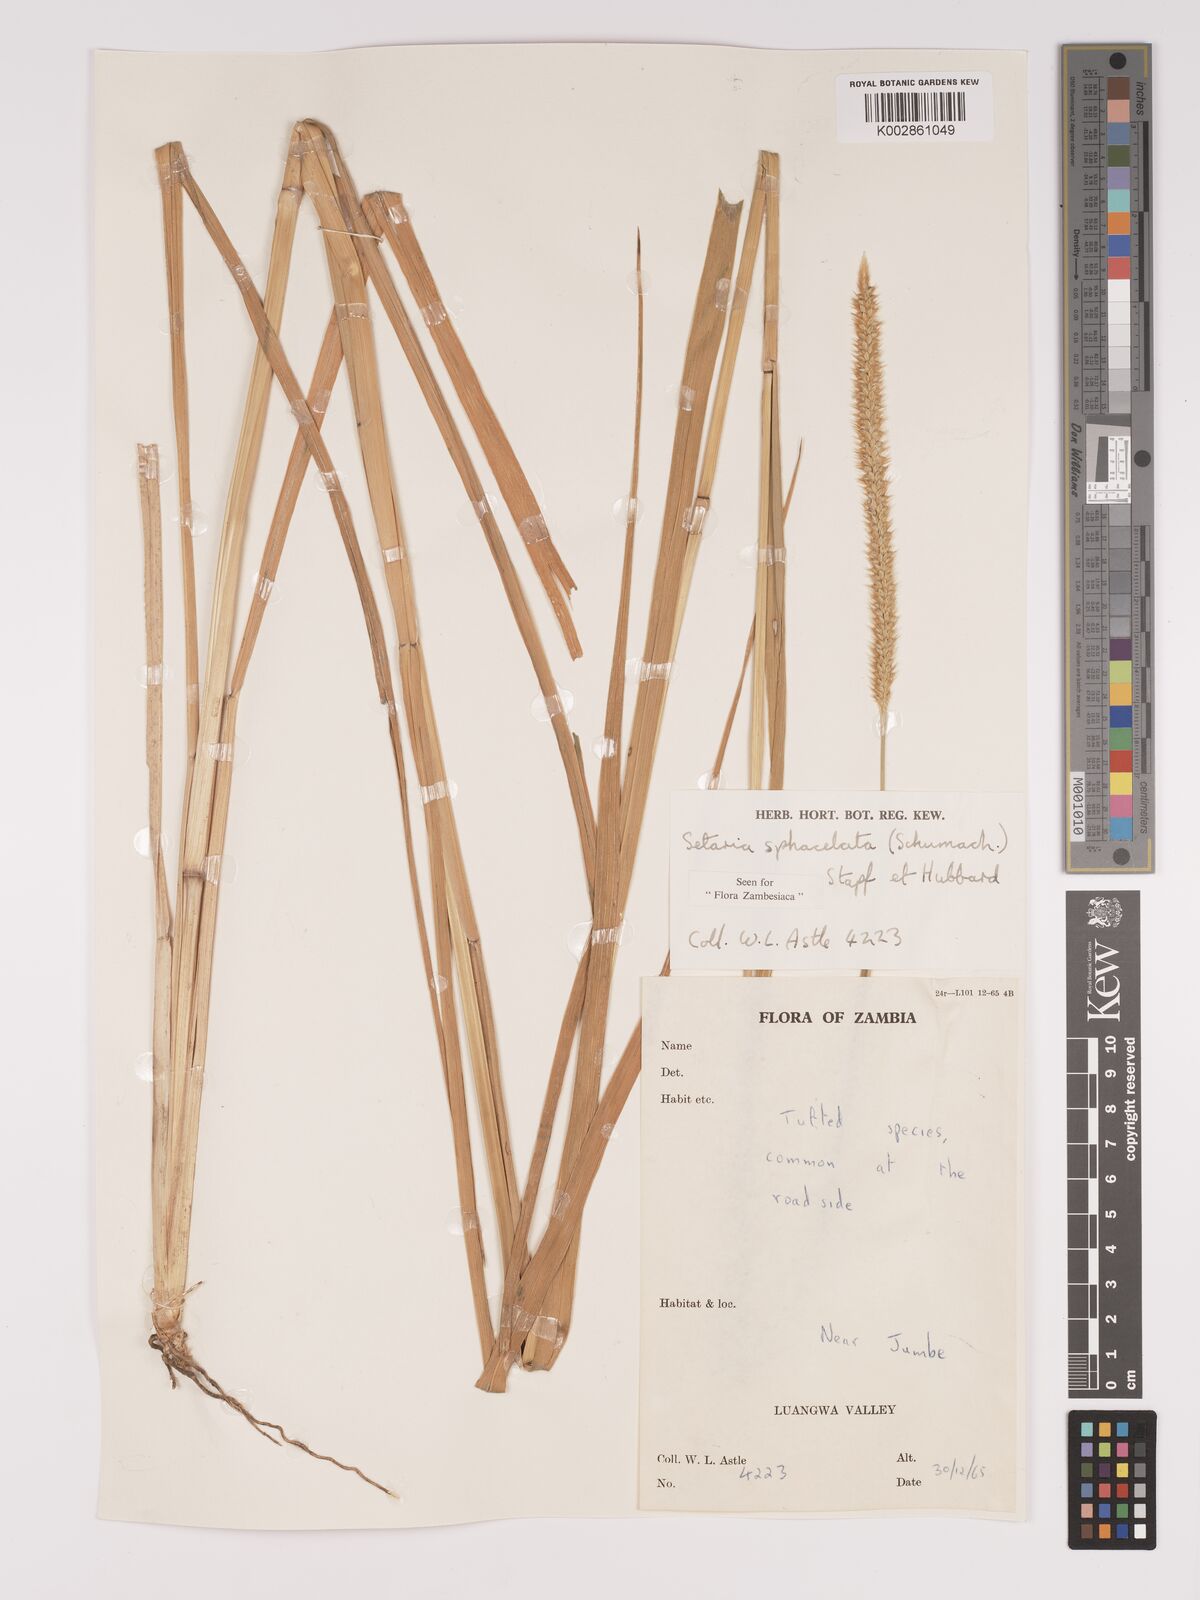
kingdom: Plantae
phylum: Tracheophyta
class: Liliopsida
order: Poales
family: Poaceae
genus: Setaria
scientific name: Setaria sphacelata
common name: African bristlegrass
